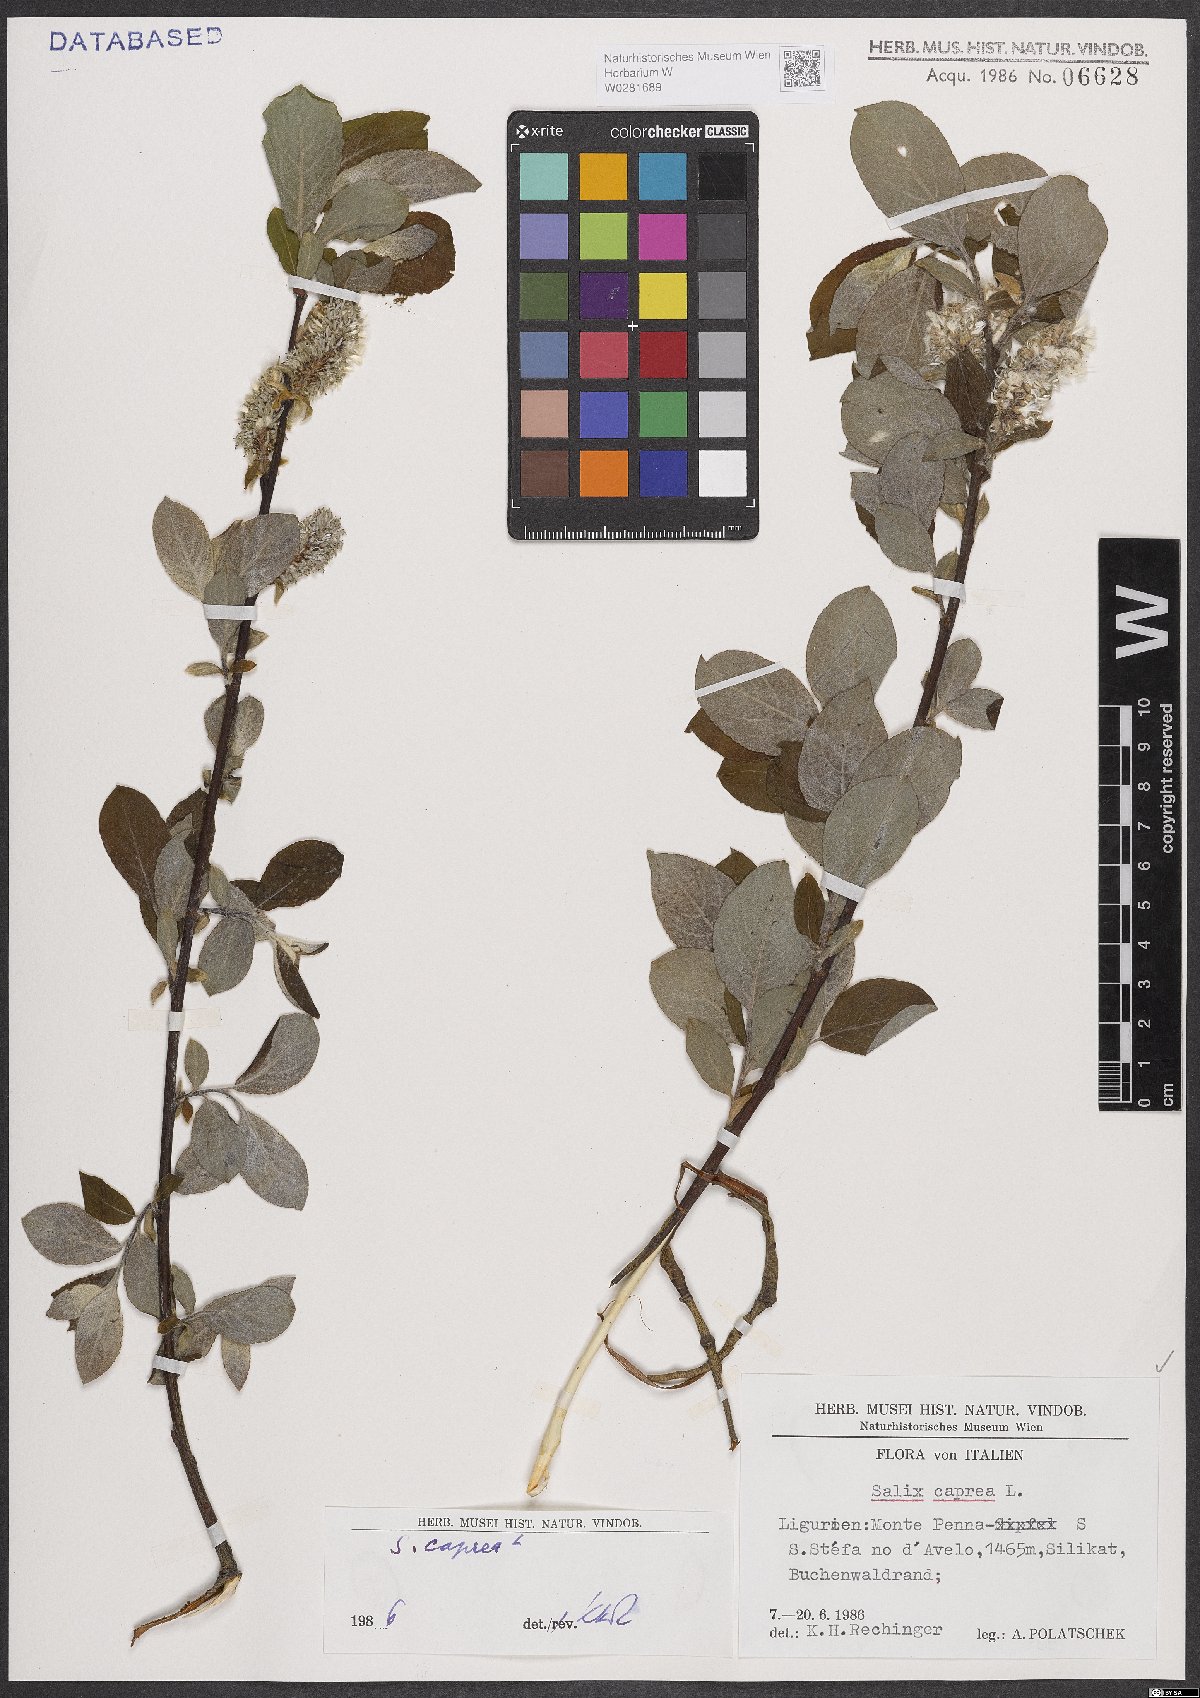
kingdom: Plantae
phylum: Tracheophyta
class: Magnoliopsida
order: Malpighiales
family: Salicaceae
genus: Salix
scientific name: Salix caprea
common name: Goat willow
